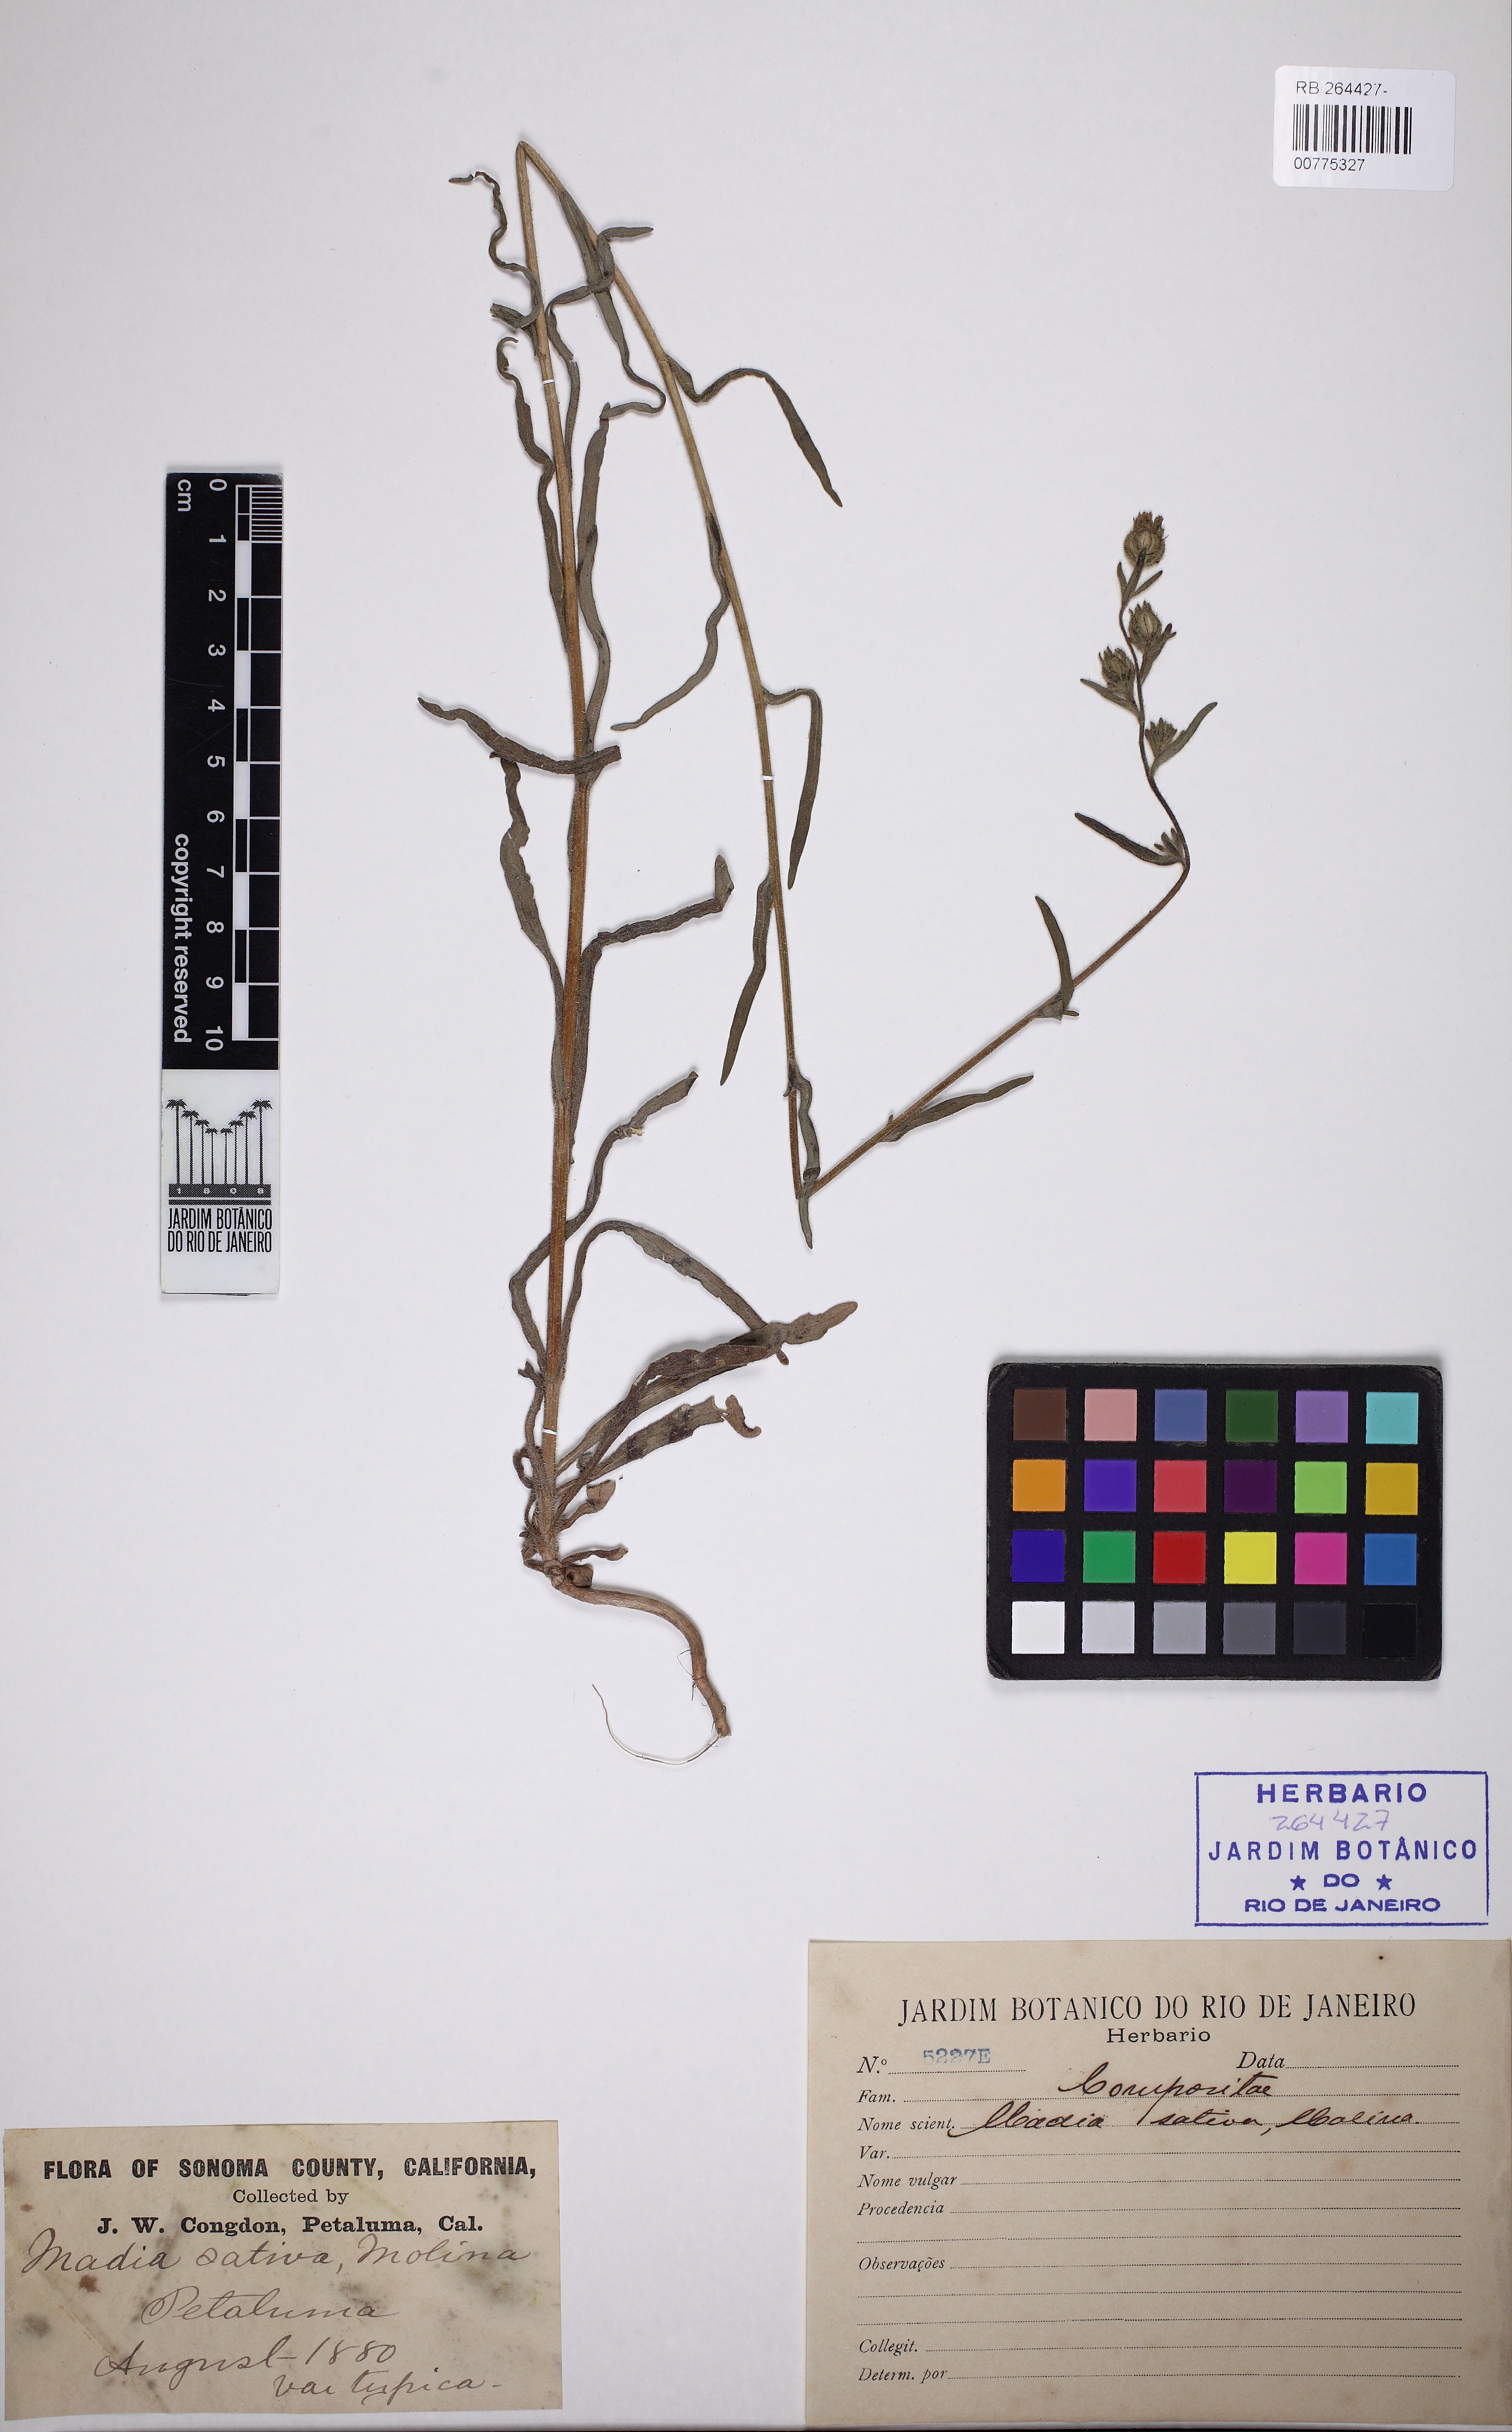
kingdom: Plantae
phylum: Tracheophyta
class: Magnoliopsida
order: Asterales
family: Asteraceae
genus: Madia
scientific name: Madia sativa
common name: Coast tarweed
